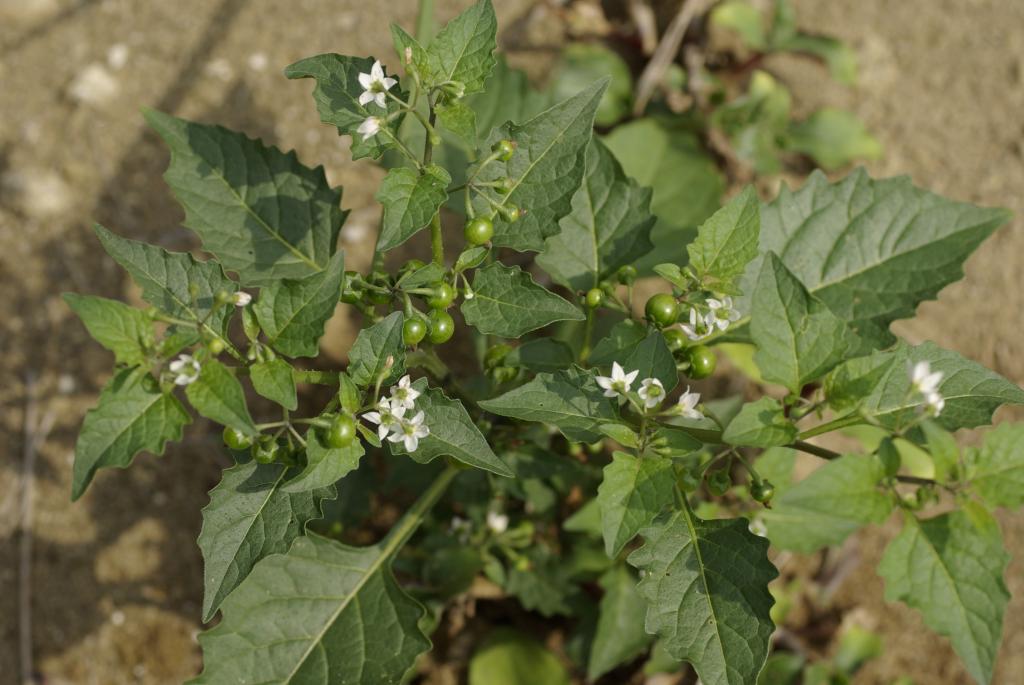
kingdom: Plantae
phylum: Tracheophyta
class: Magnoliopsida
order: Solanales
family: Solanaceae
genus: Solanum
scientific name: Solanum americanum
